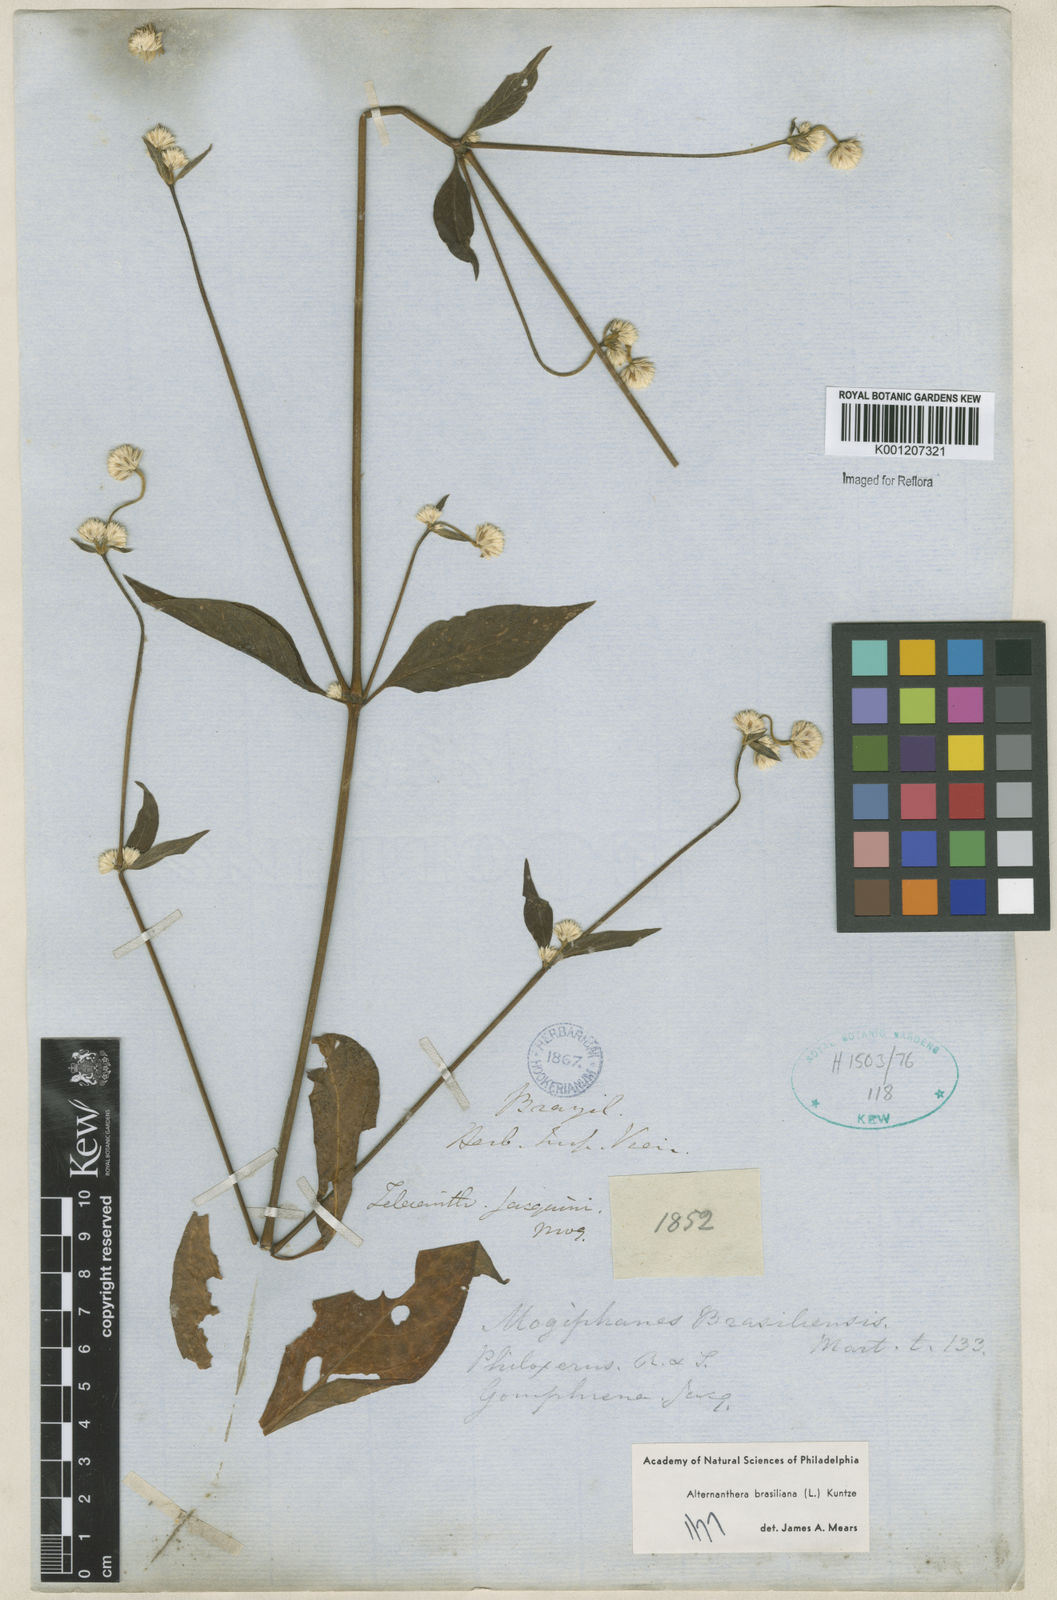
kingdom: Plantae
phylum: Tracheophyta
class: Magnoliopsida
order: Caryophyllales
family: Amaranthaceae
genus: Alternanthera
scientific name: Alternanthera brasiliana
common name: Brazilian joyweed
